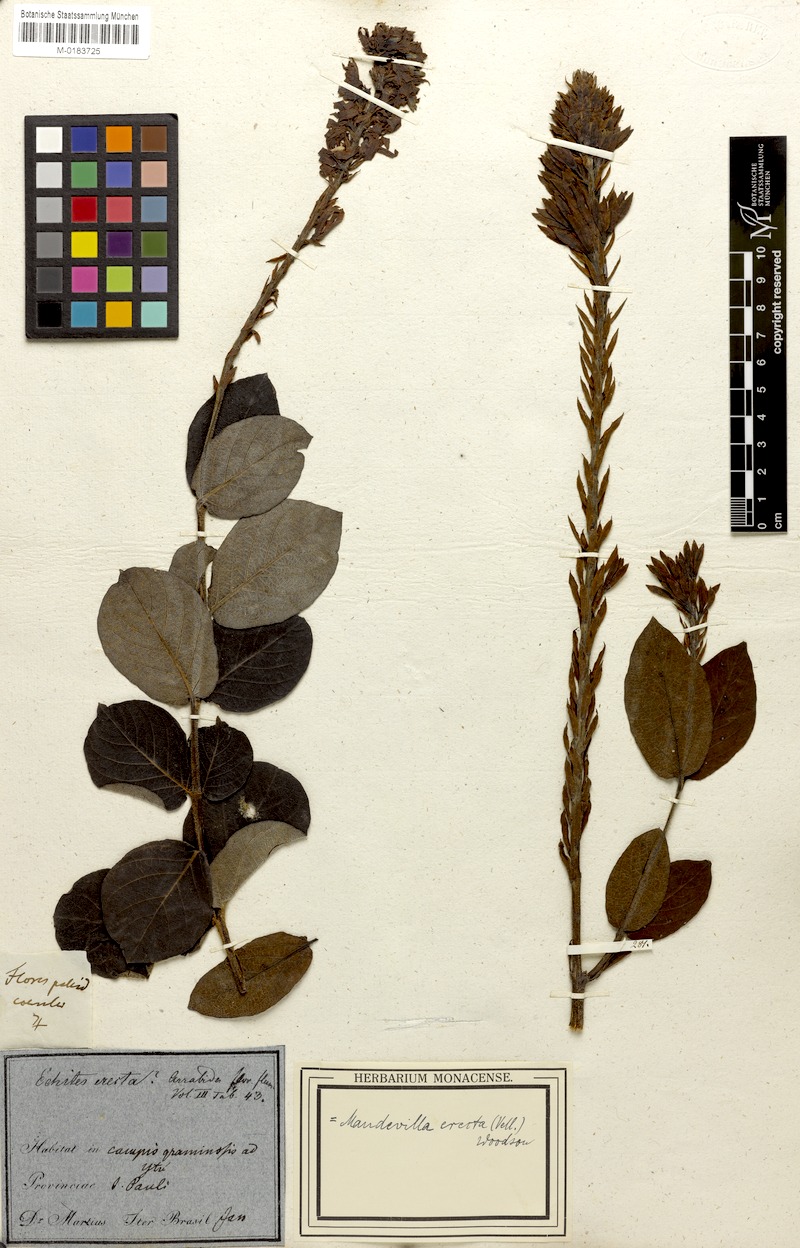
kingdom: Plantae
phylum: Tracheophyta
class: Magnoliopsida
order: Gentianales
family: Apocynaceae
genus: Mandevilla
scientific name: Mandevilla emarginata
